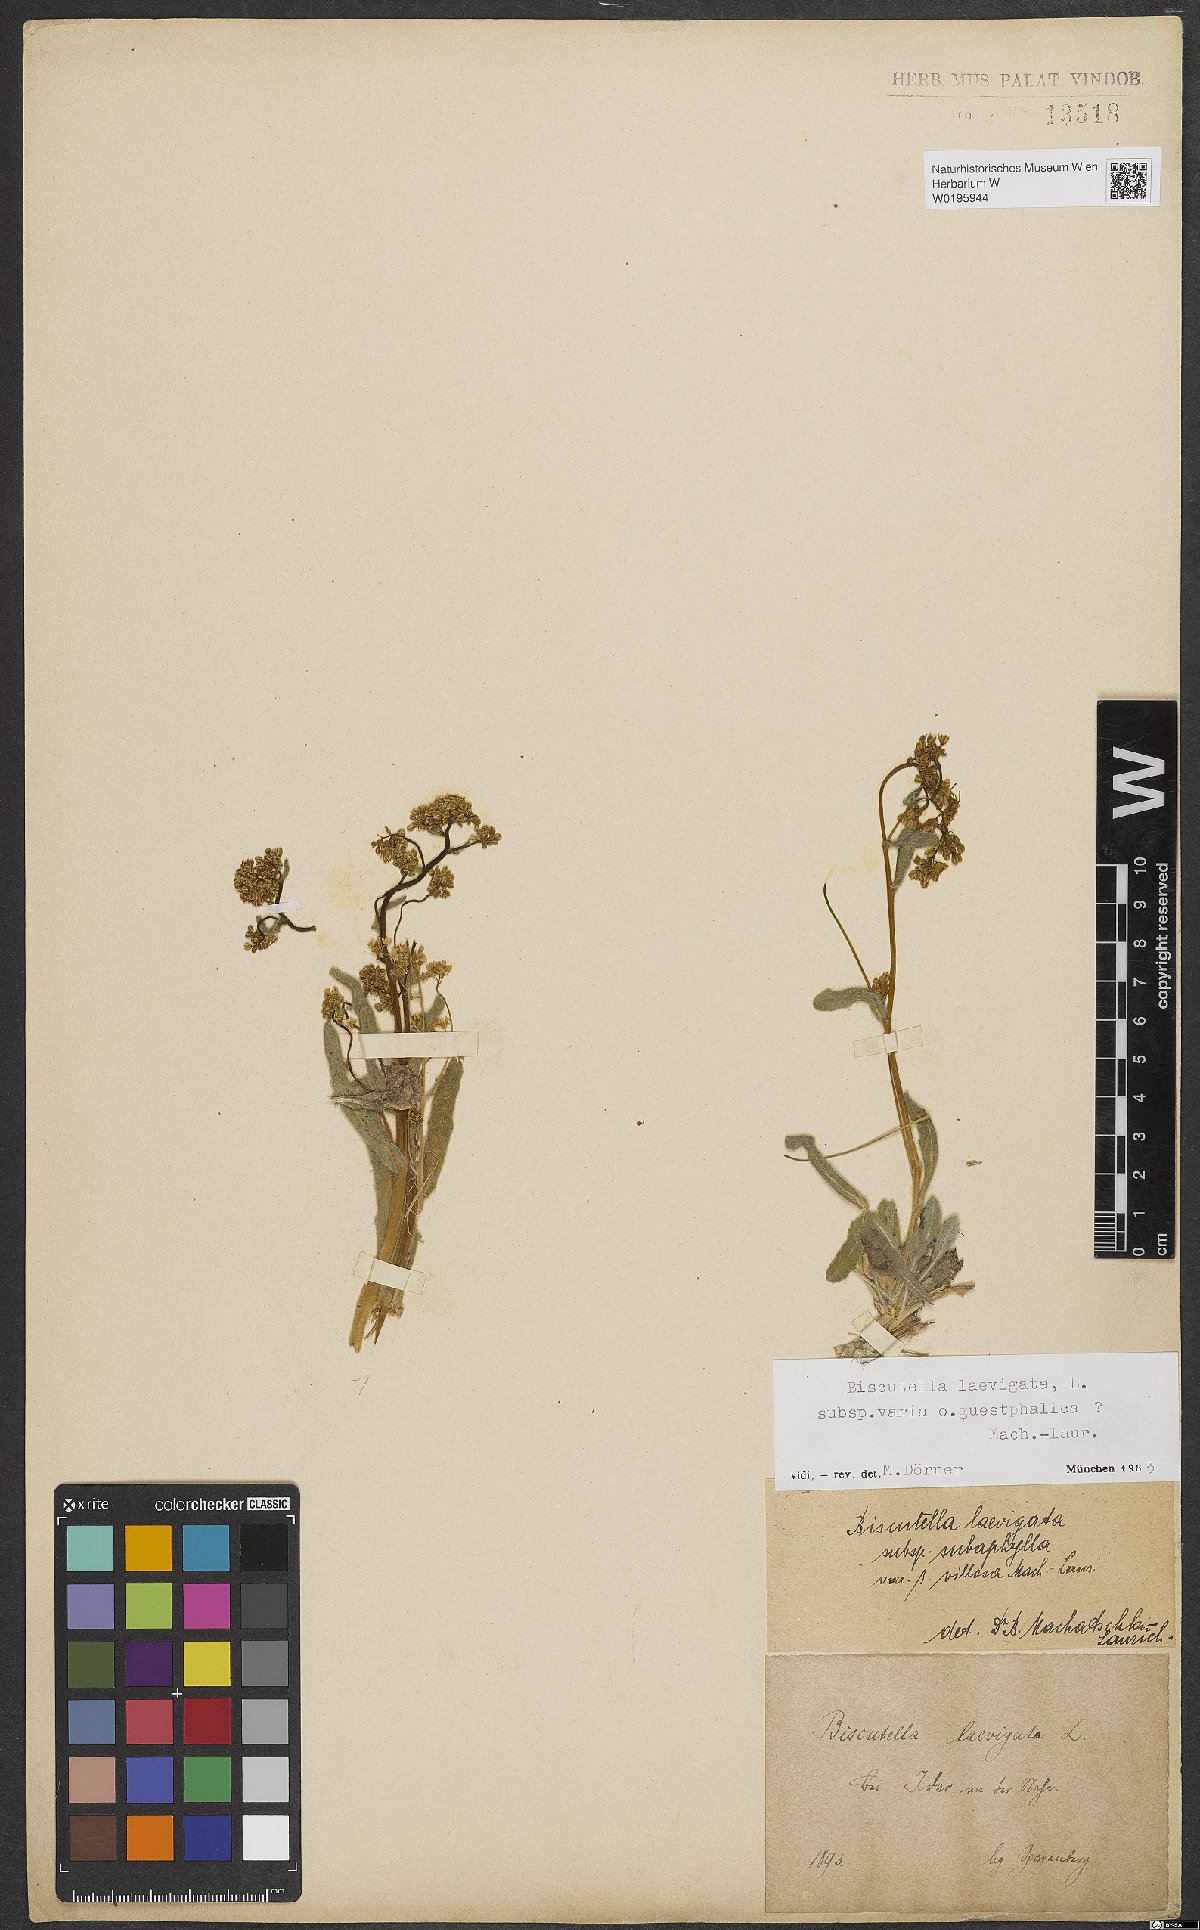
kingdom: Plantae
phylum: Tracheophyta
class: Magnoliopsida
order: Brassicales
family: Brassicaceae
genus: Biscutella
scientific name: Biscutella laevigata
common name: Buckler mustard
